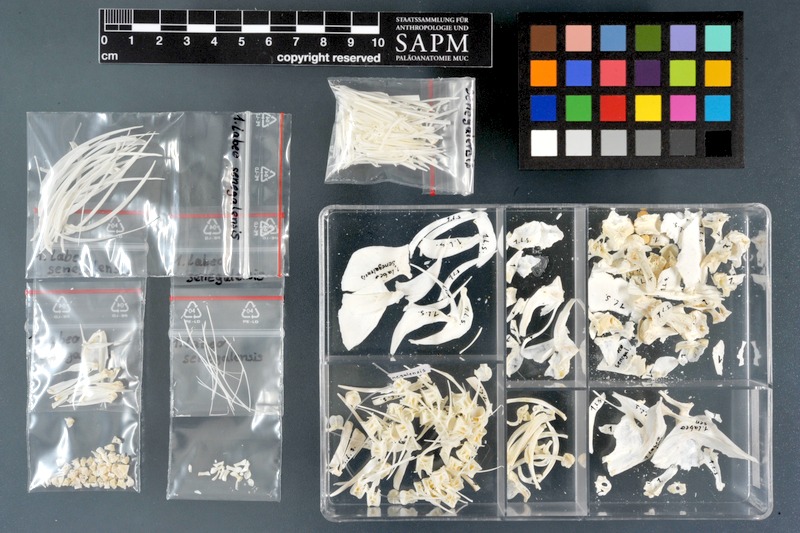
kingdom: Animalia
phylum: Chordata
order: Cypriniformes
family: Cyprinidae
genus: Labeo
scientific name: Labeo senegalensis
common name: African carp
